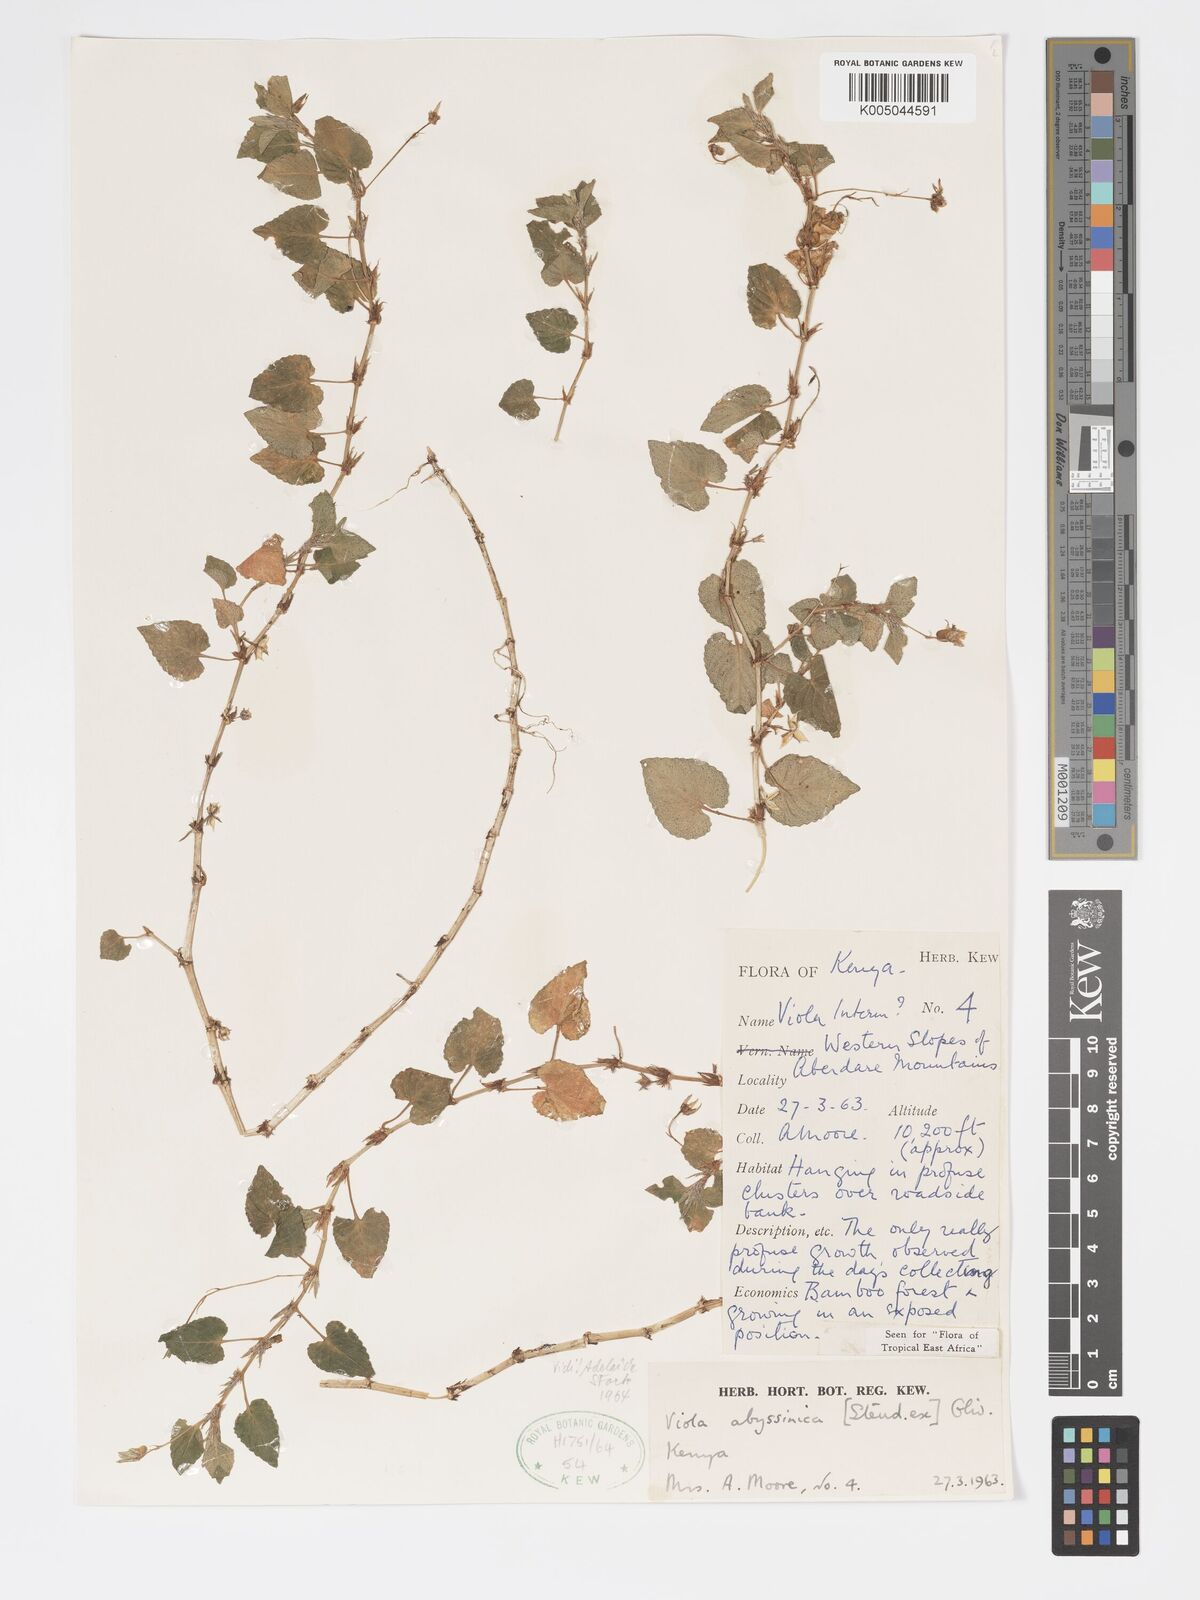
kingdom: Plantae
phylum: Tracheophyta
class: Magnoliopsida
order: Malpighiales
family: Violaceae
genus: Viola
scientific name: Viola abyssinica
